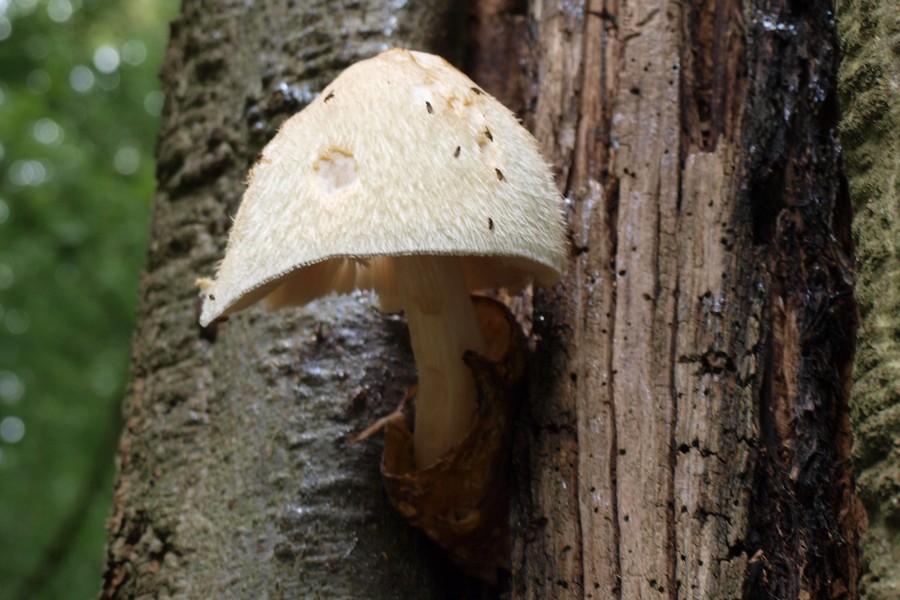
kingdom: Fungi
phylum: Basidiomycota
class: Agaricomycetes
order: Agaricales
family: Pluteaceae
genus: Volvariella
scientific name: Volvariella bombycina
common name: silkehåret posesvamp
